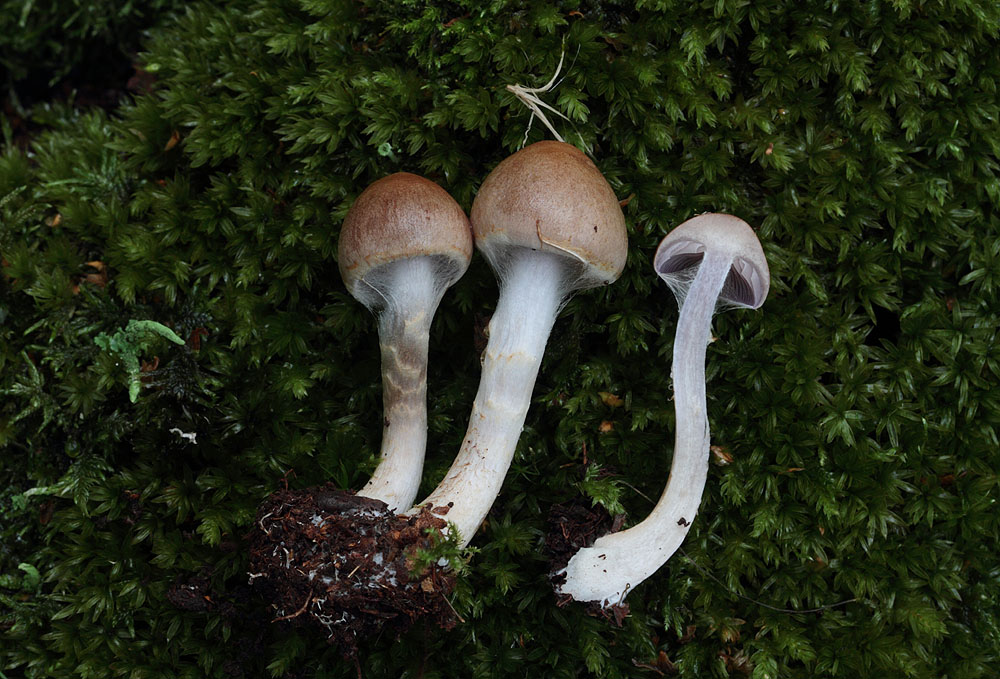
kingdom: Fungi
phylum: Basidiomycota
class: Agaricomycetes
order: Agaricales
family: Cortinariaceae
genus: Cortinarius
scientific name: Cortinarius anomalus
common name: Variable webcap
